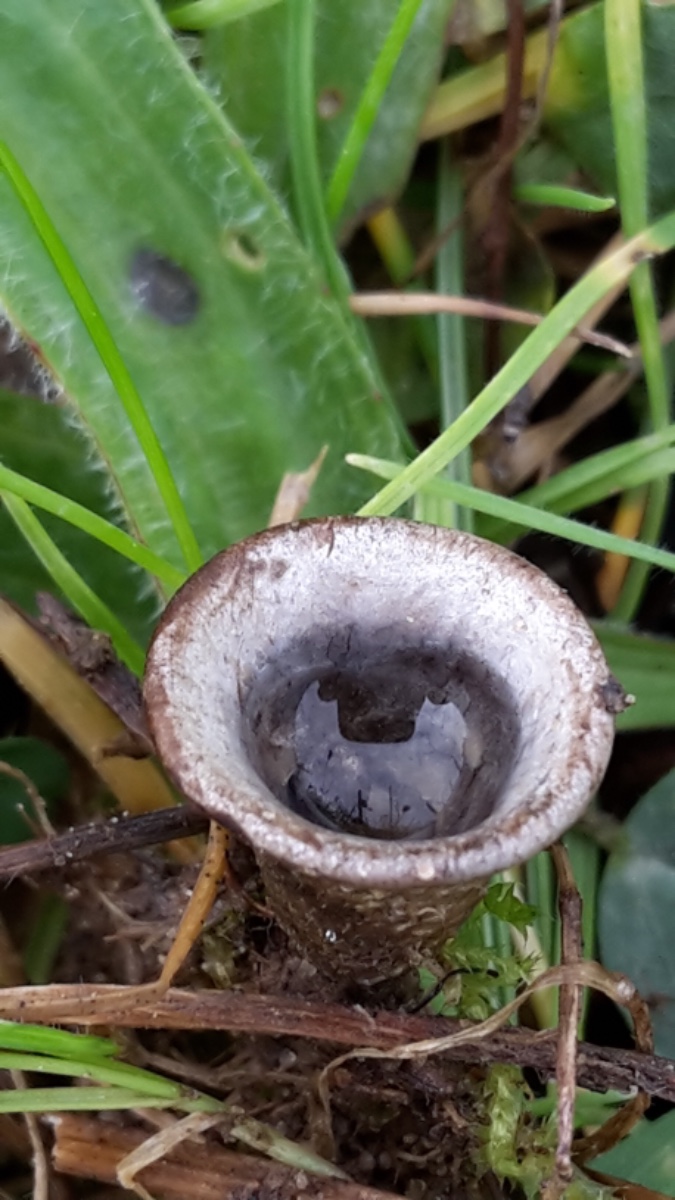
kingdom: Fungi
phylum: Basidiomycota
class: Agaricomycetes
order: Agaricales
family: Agaricaceae
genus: Cyathus
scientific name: Cyathus olla
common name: klokke-redesvamp
